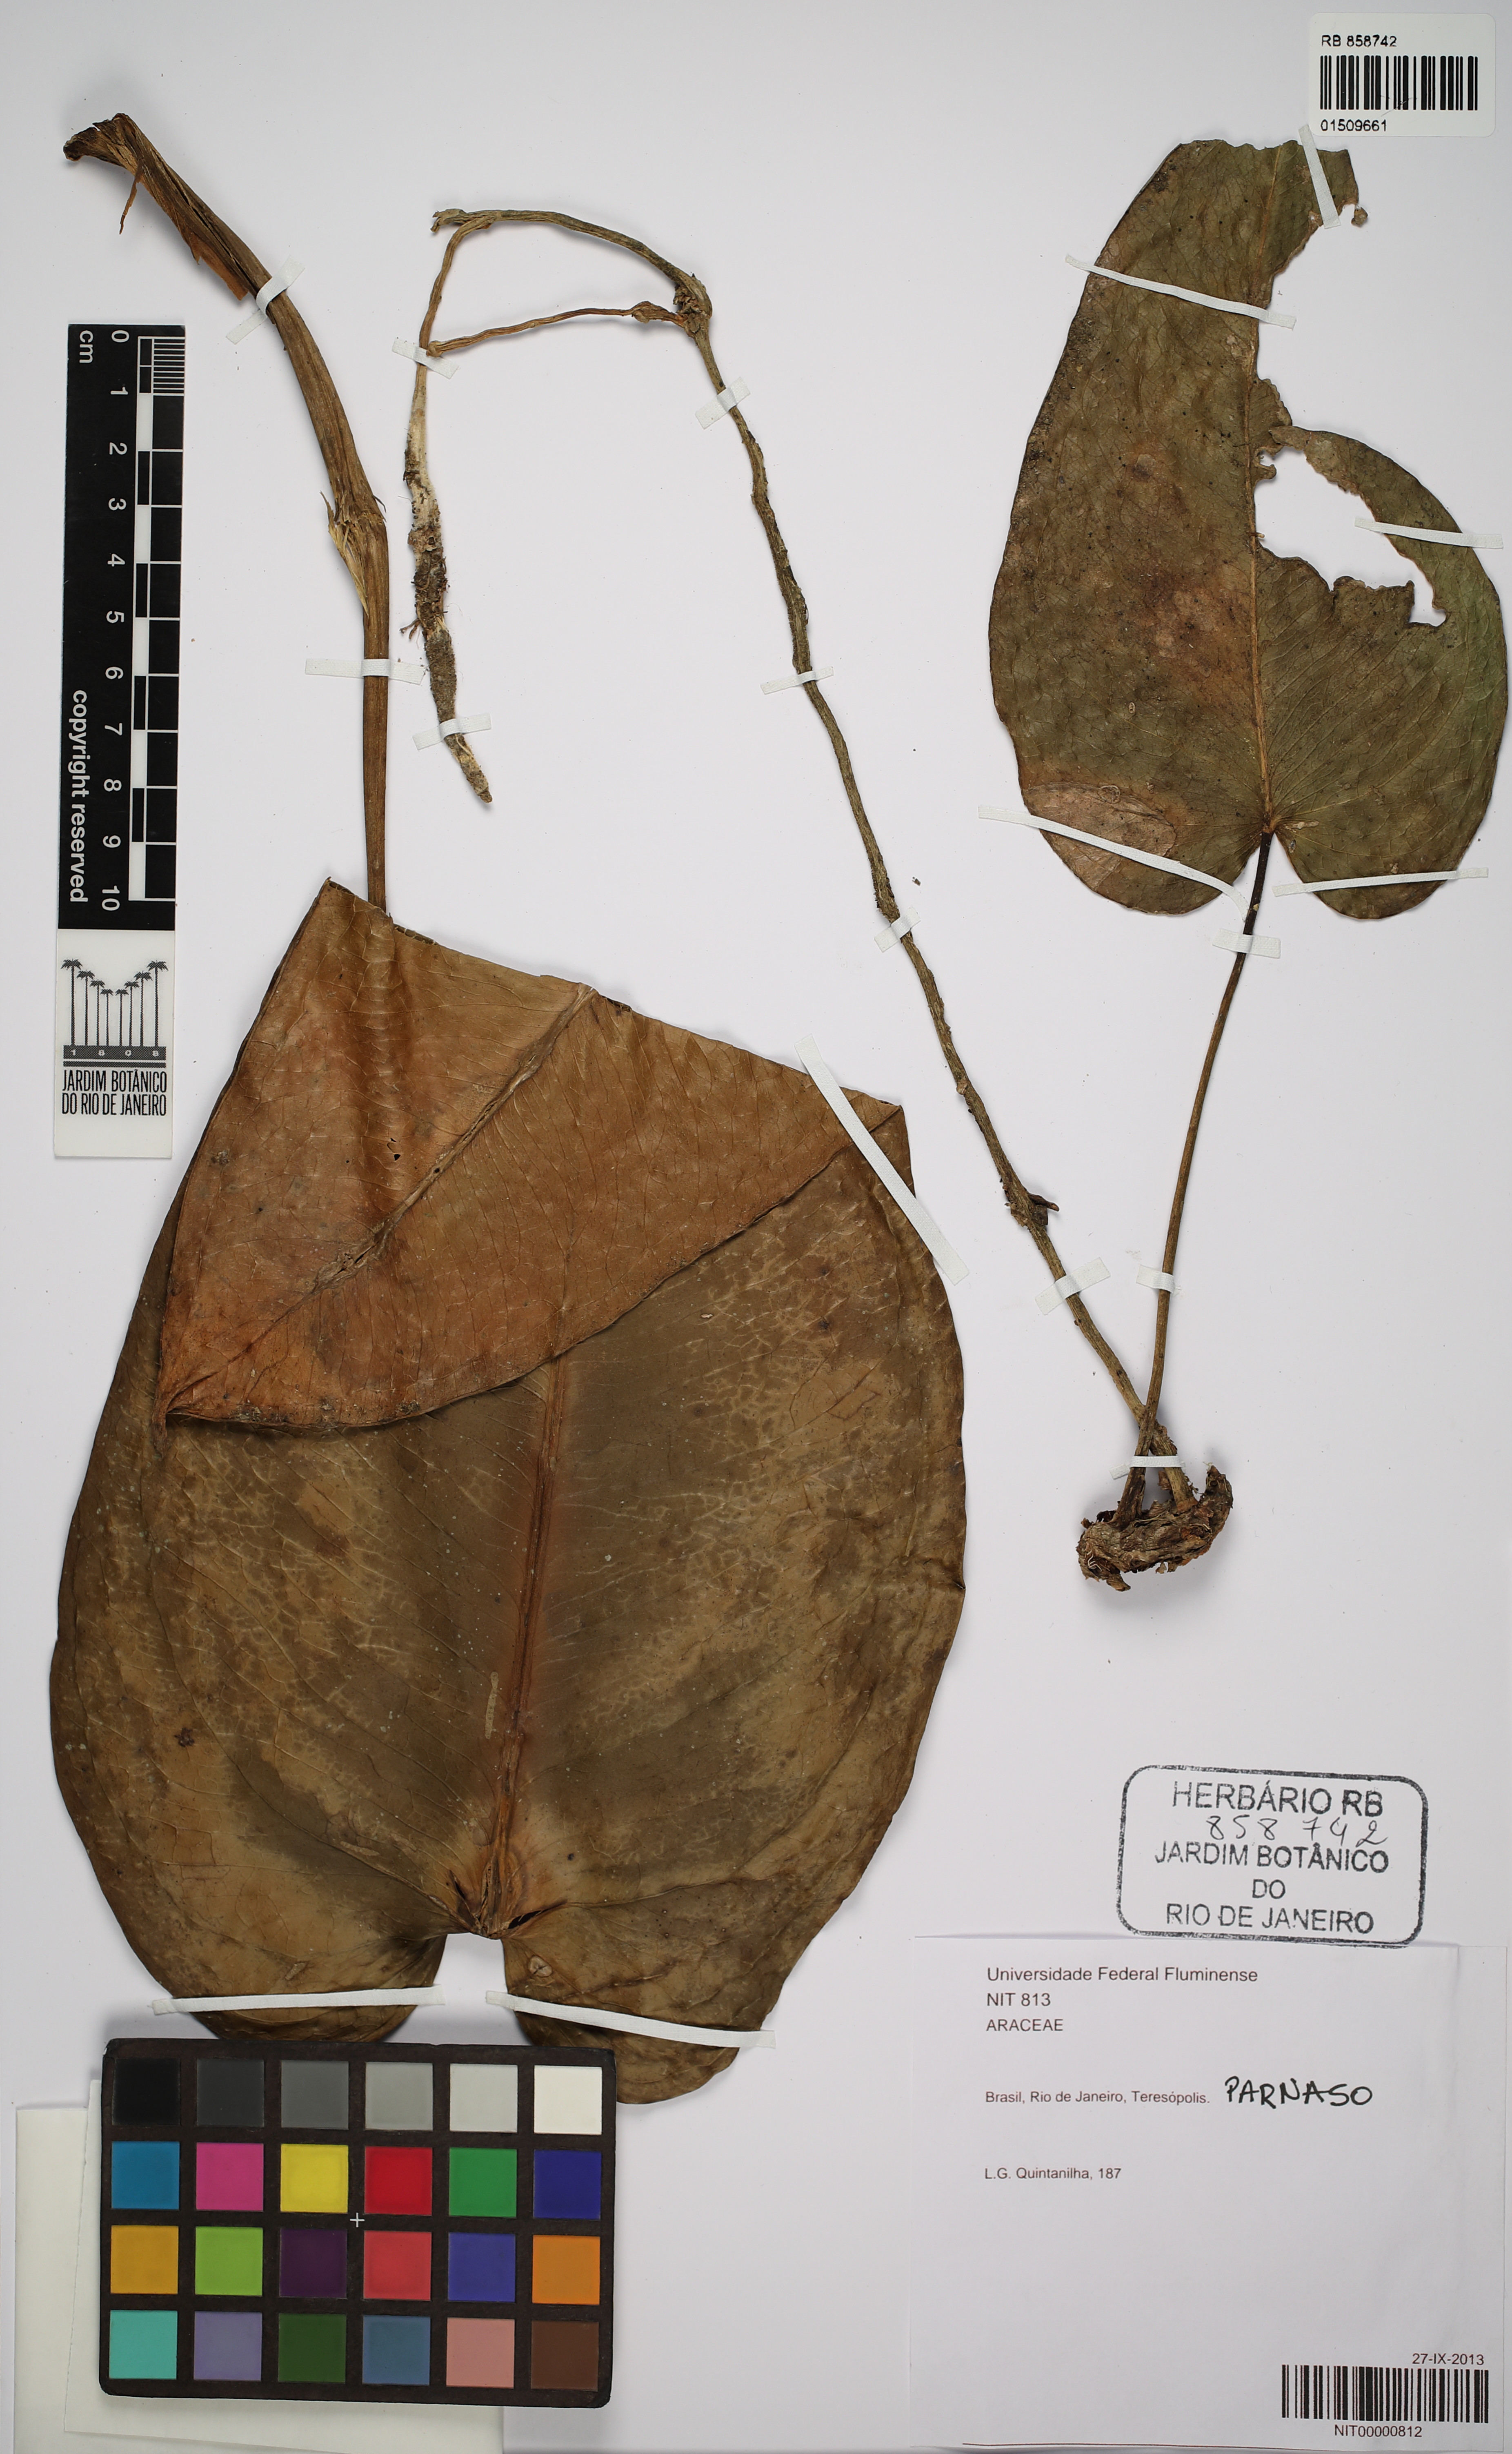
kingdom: Plantae
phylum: Tracheophyta
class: Liliopsida
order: Alismatales
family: Araceae
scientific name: Araceae
